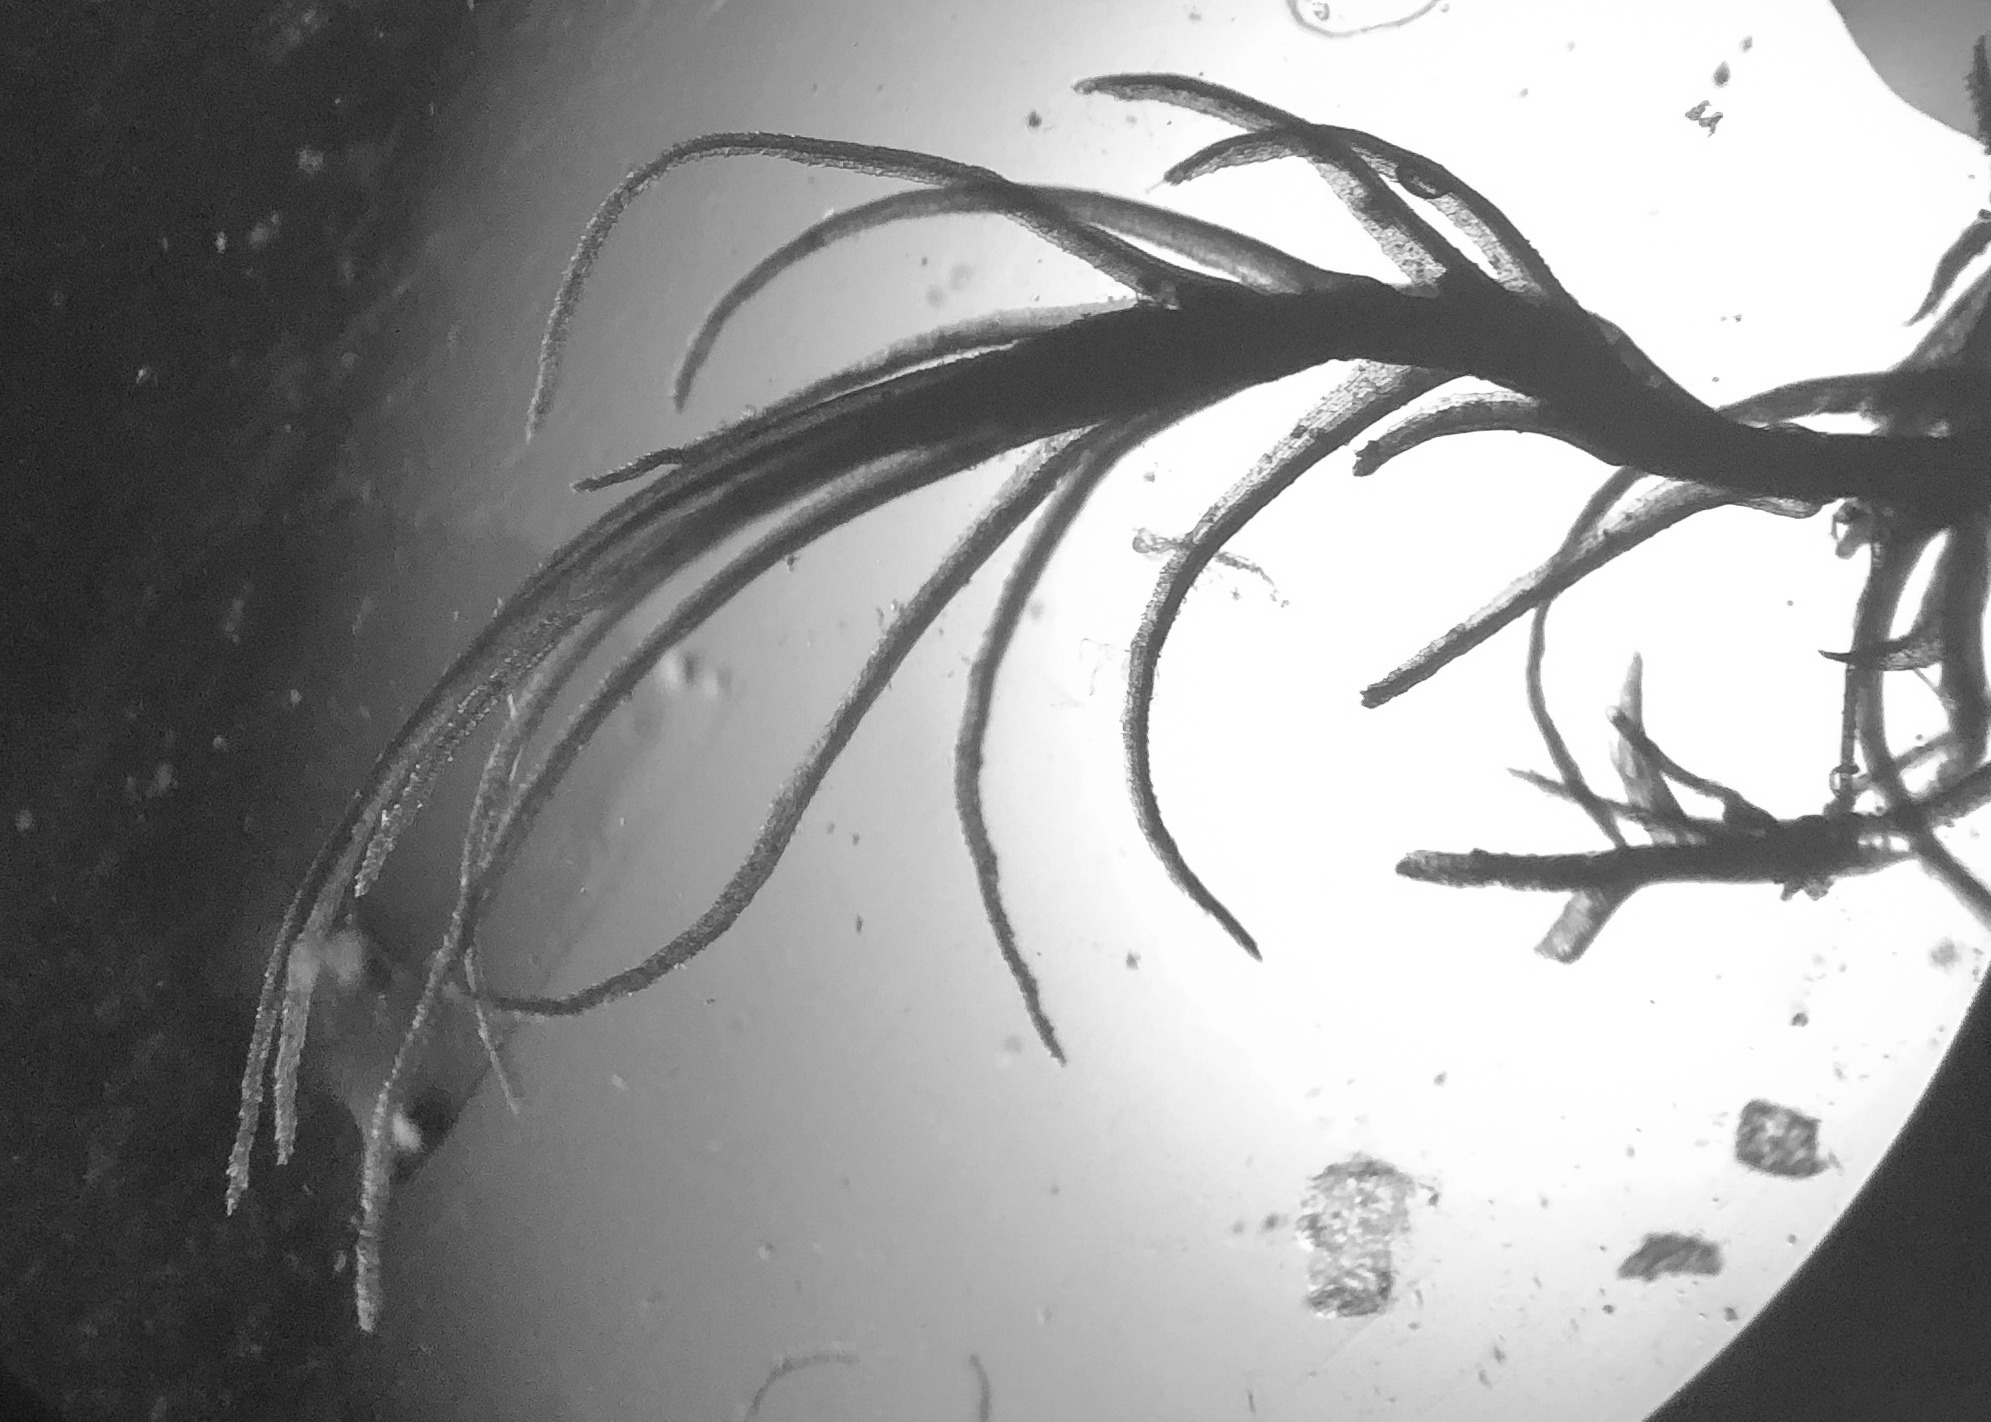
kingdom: Plantae
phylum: Bryophyta
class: Bryopsida
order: Dicranales
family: Ditrichaceae
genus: Ditrichum
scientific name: Ditrichum heteromallum
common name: Ensidig hårtand
